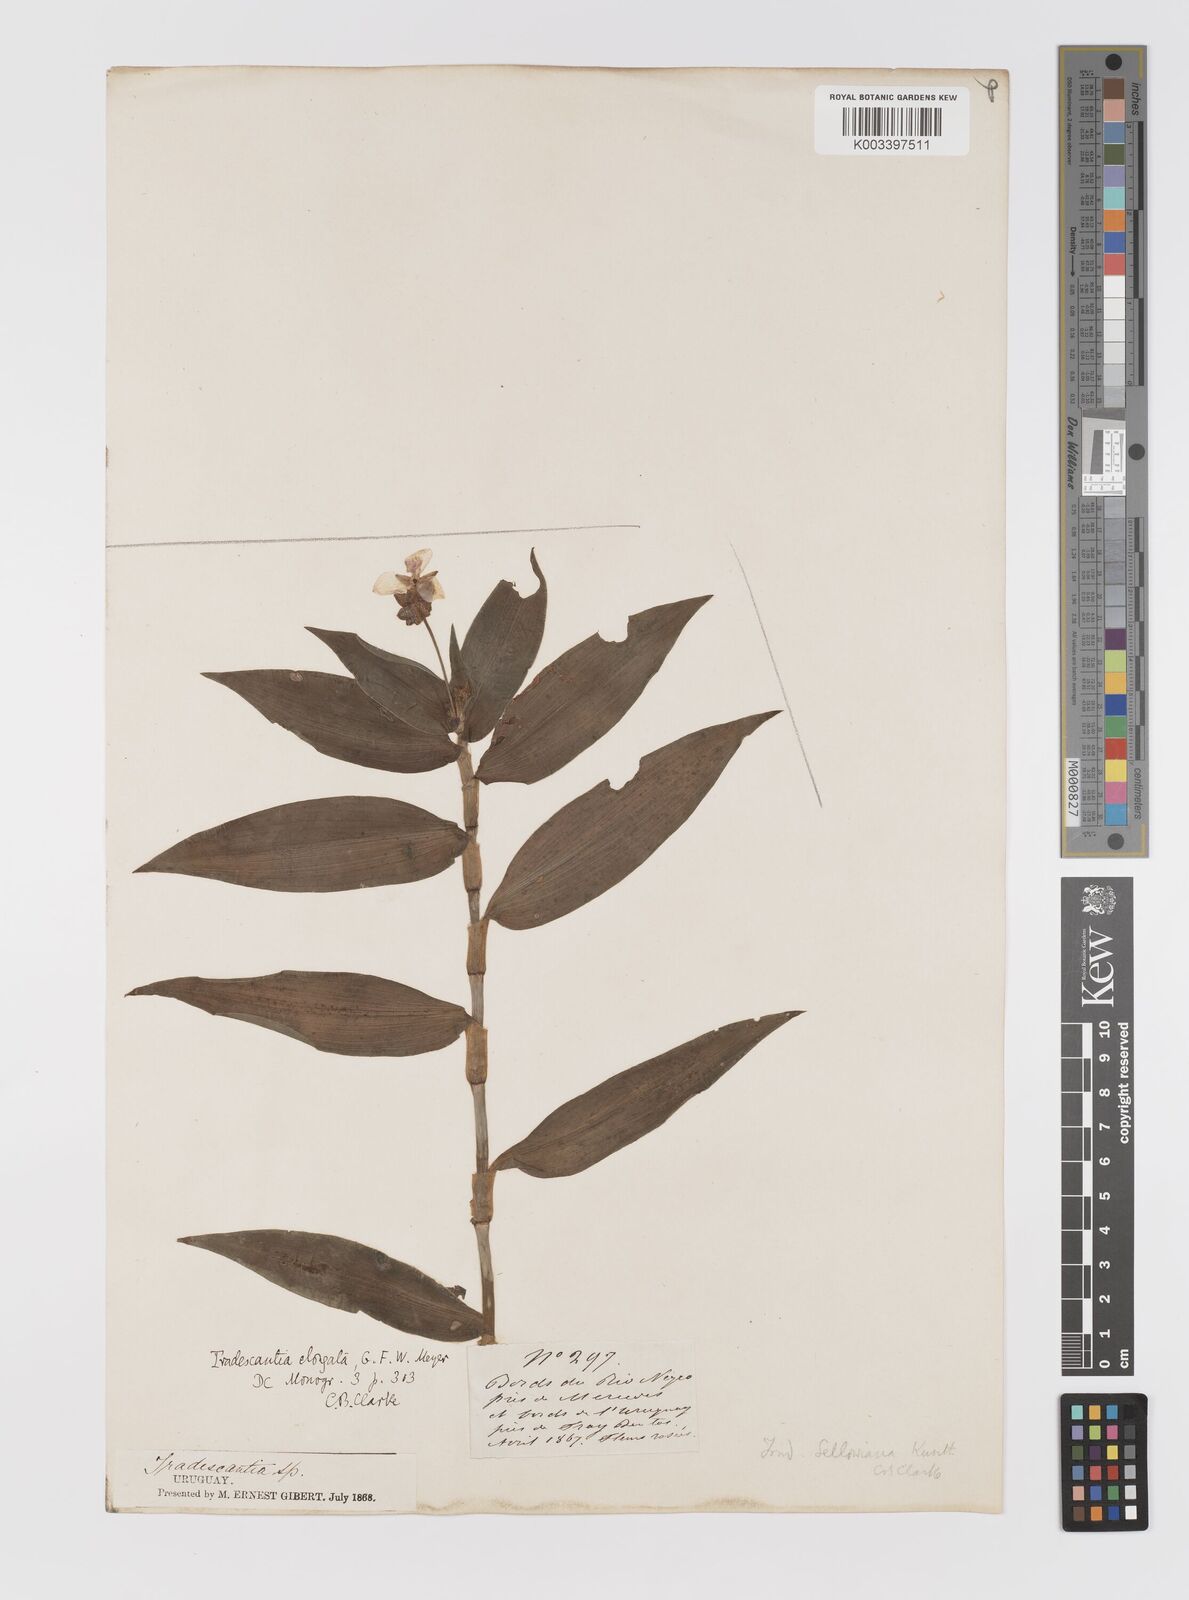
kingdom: Plantae
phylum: Tracheophyta
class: Liliopsida
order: Commelinales
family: Commelinaceae
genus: Callisia
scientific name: Callisia serrulata
